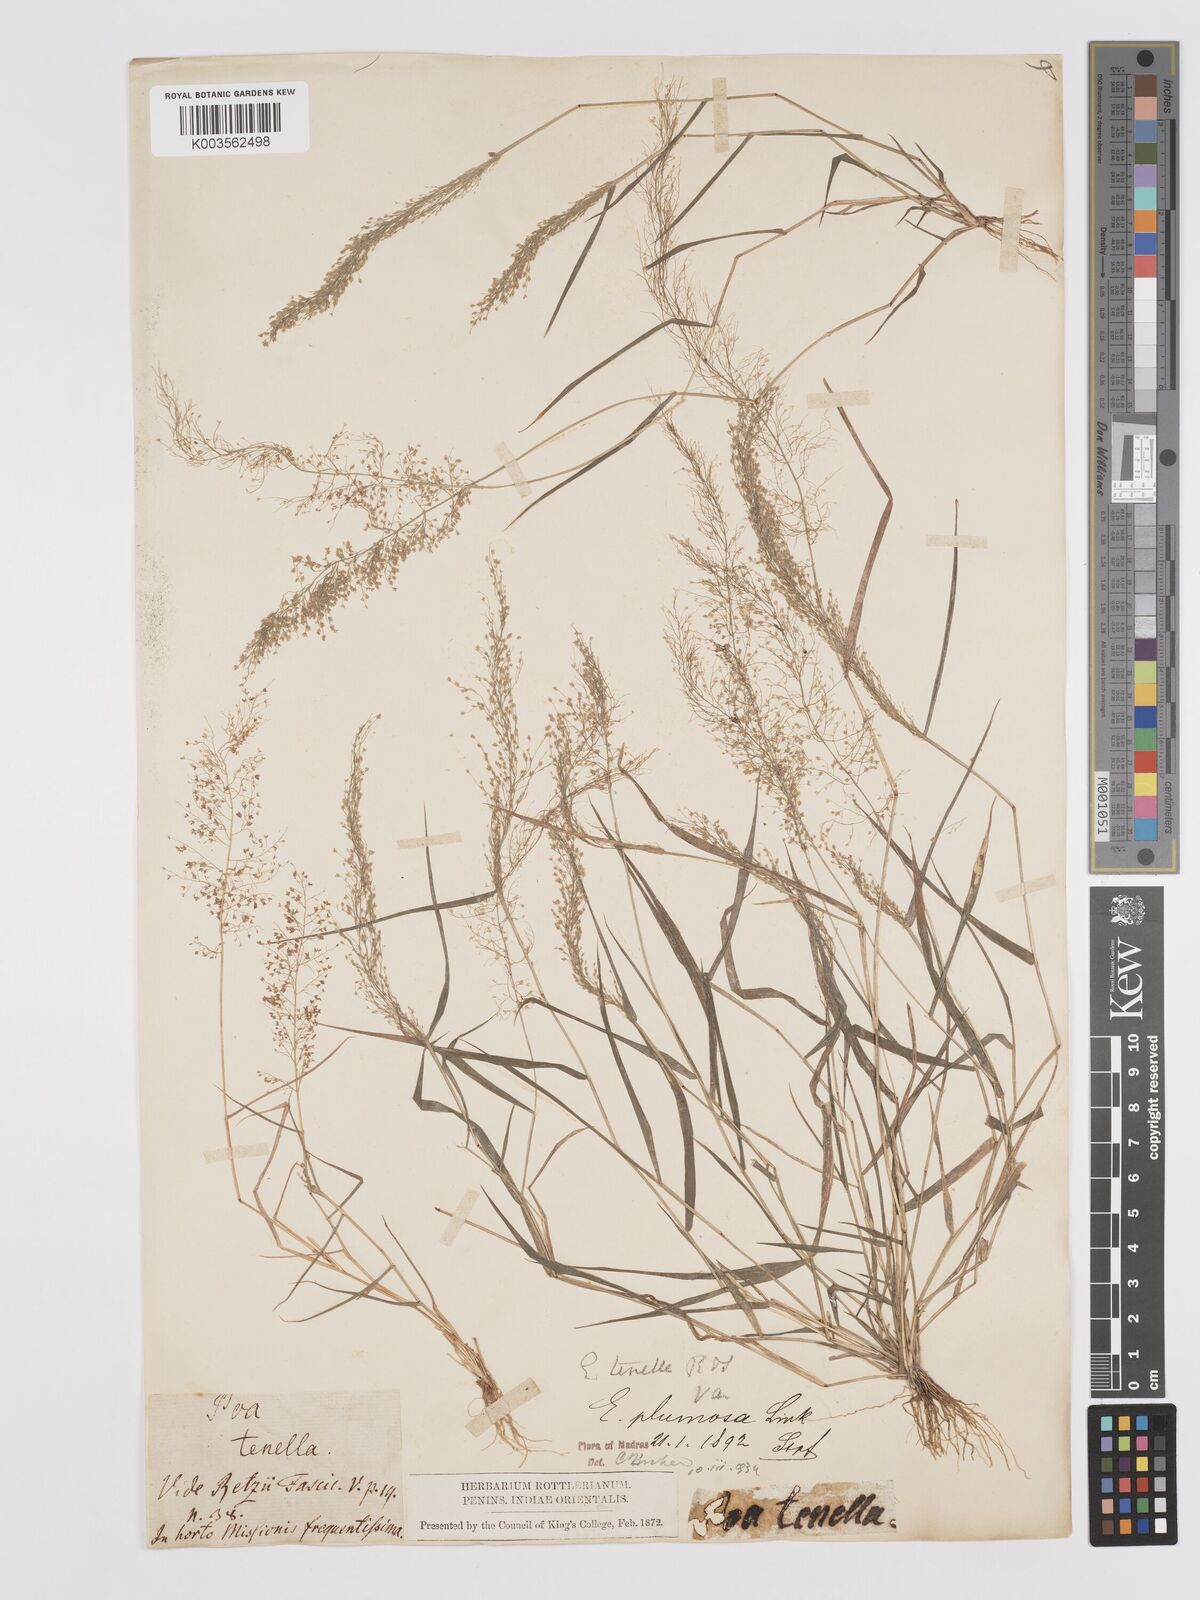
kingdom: Plantae
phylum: Tracheophyta
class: Liliopsida
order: Poales
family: Poaceae
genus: Eragrostis
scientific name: Eragrostis tenella
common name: Japanese lovegrass
